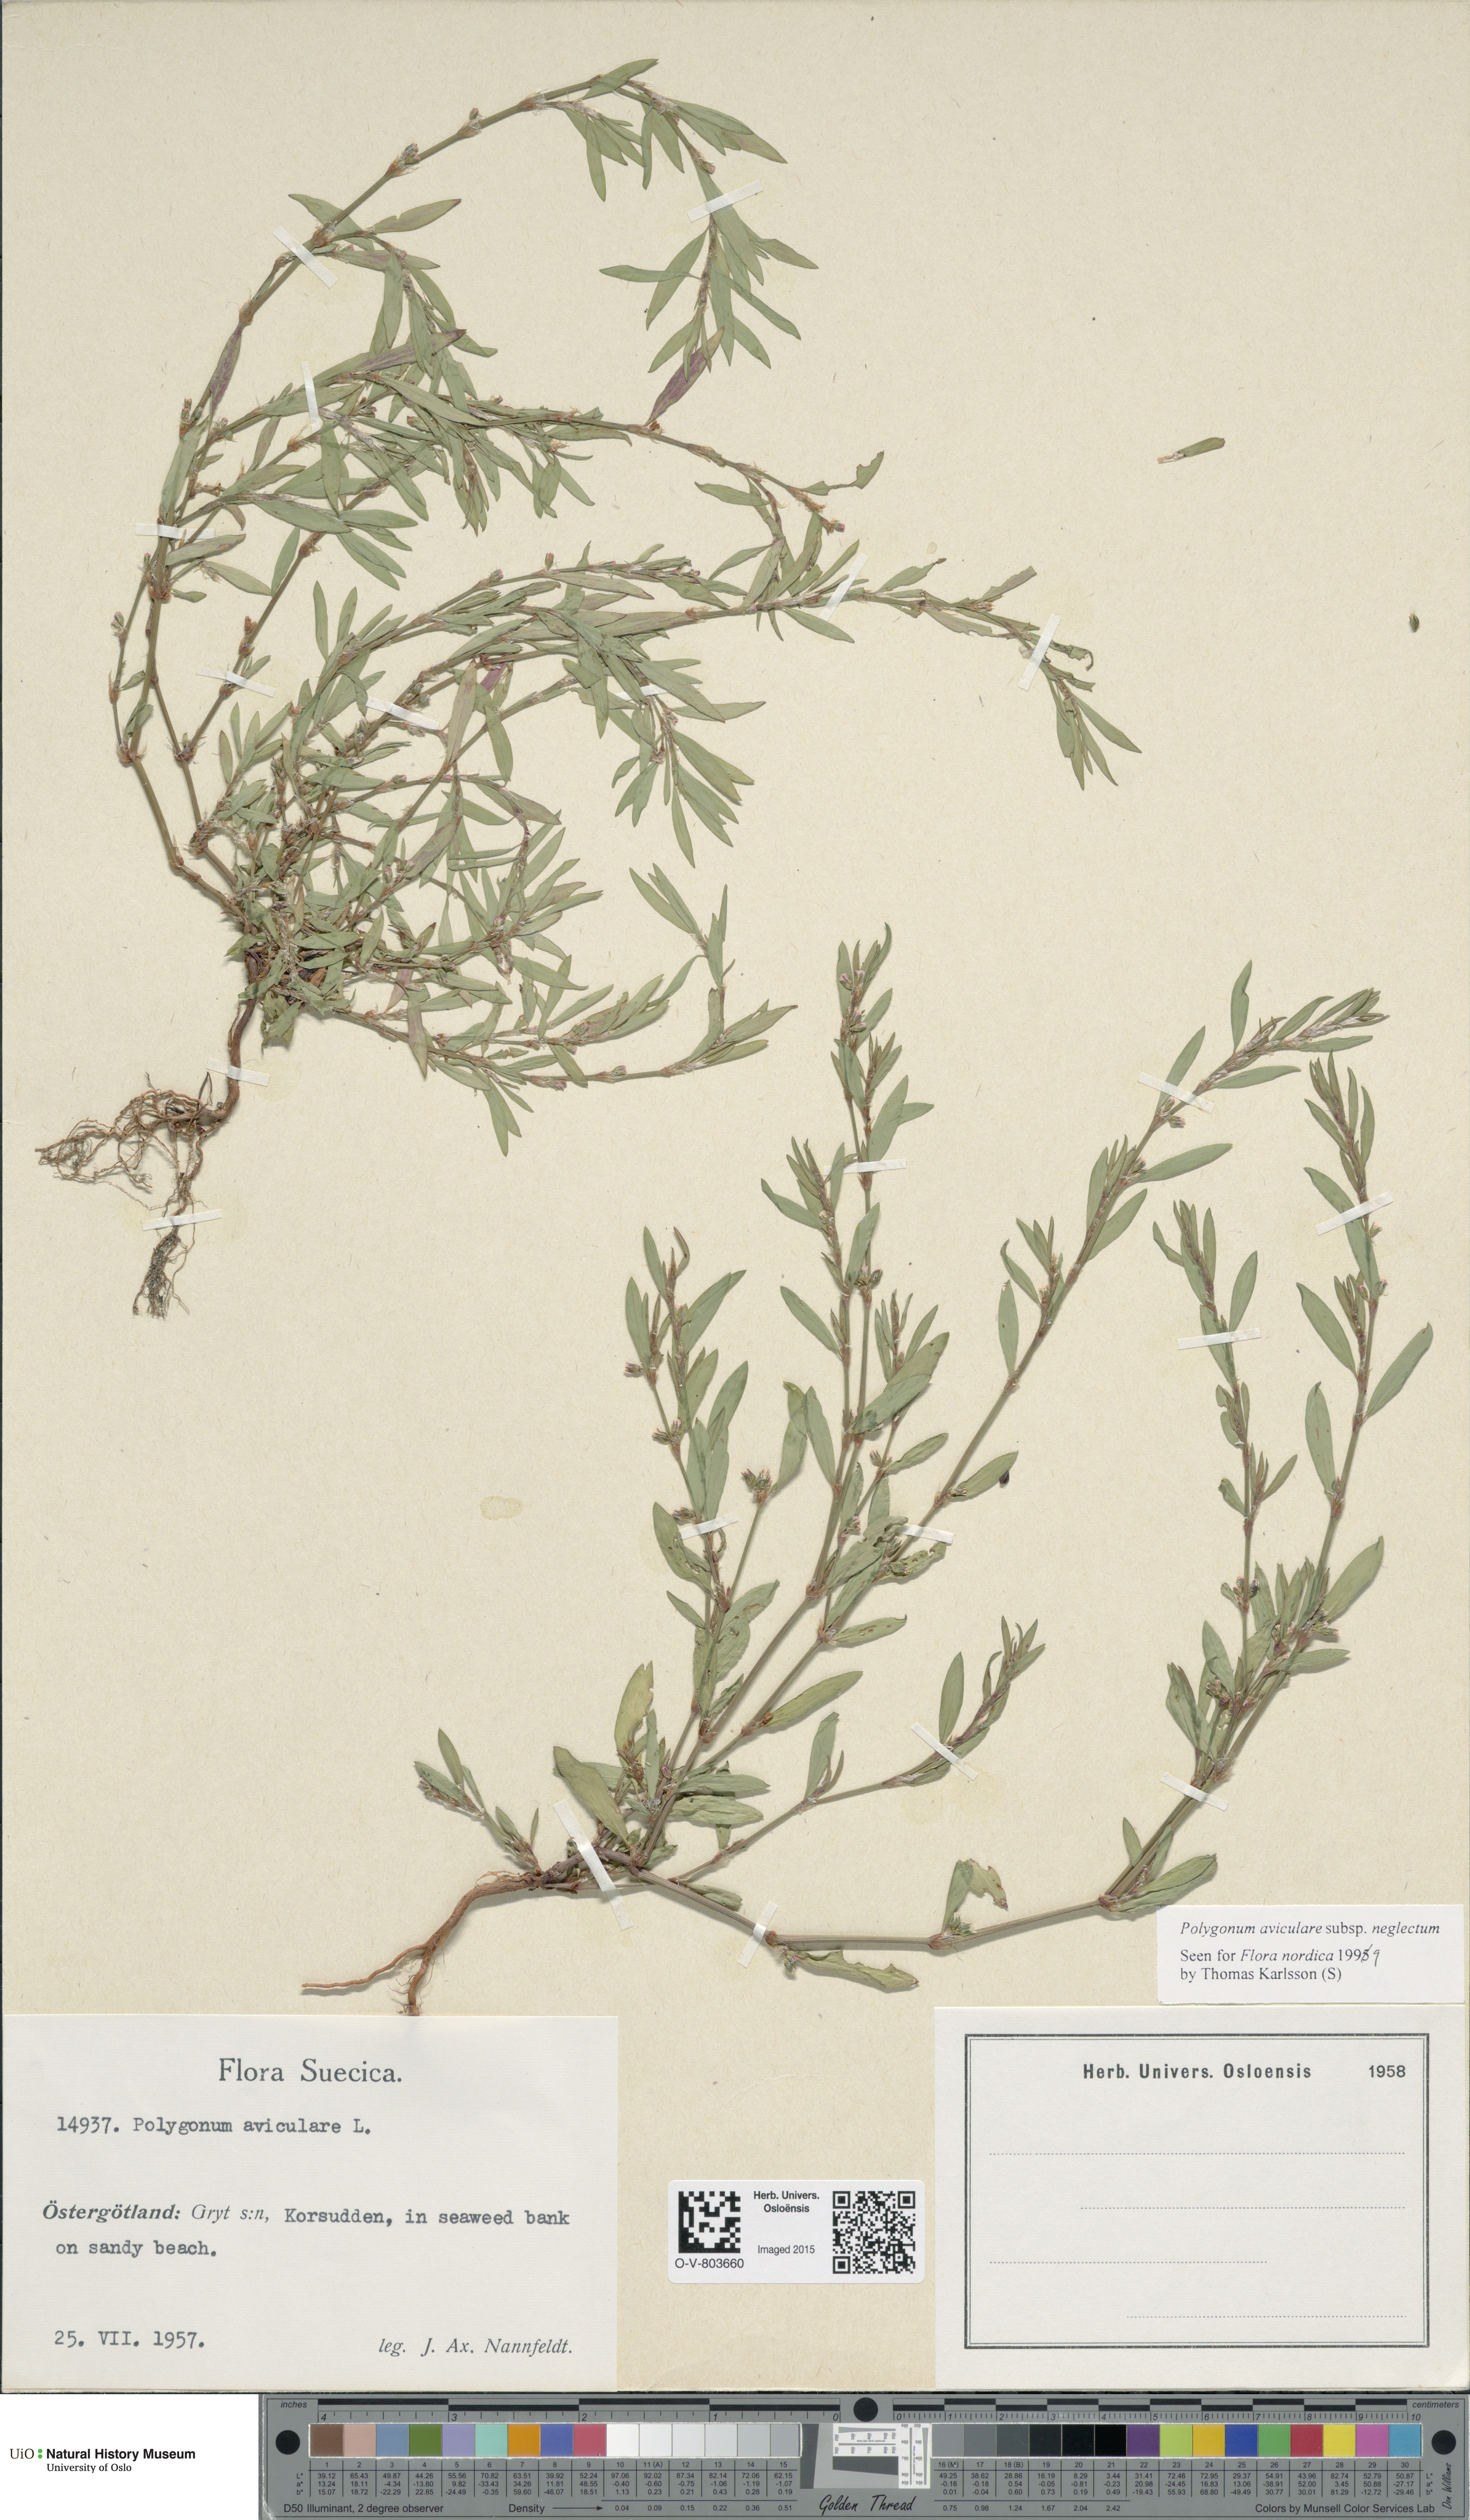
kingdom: Plantae
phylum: Tracheophyta
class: Magnoliopsida
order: Caryophyllales
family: Polygonaceae
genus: Polygonum
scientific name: Polygonum aviculare
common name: Prostrate knotweed
